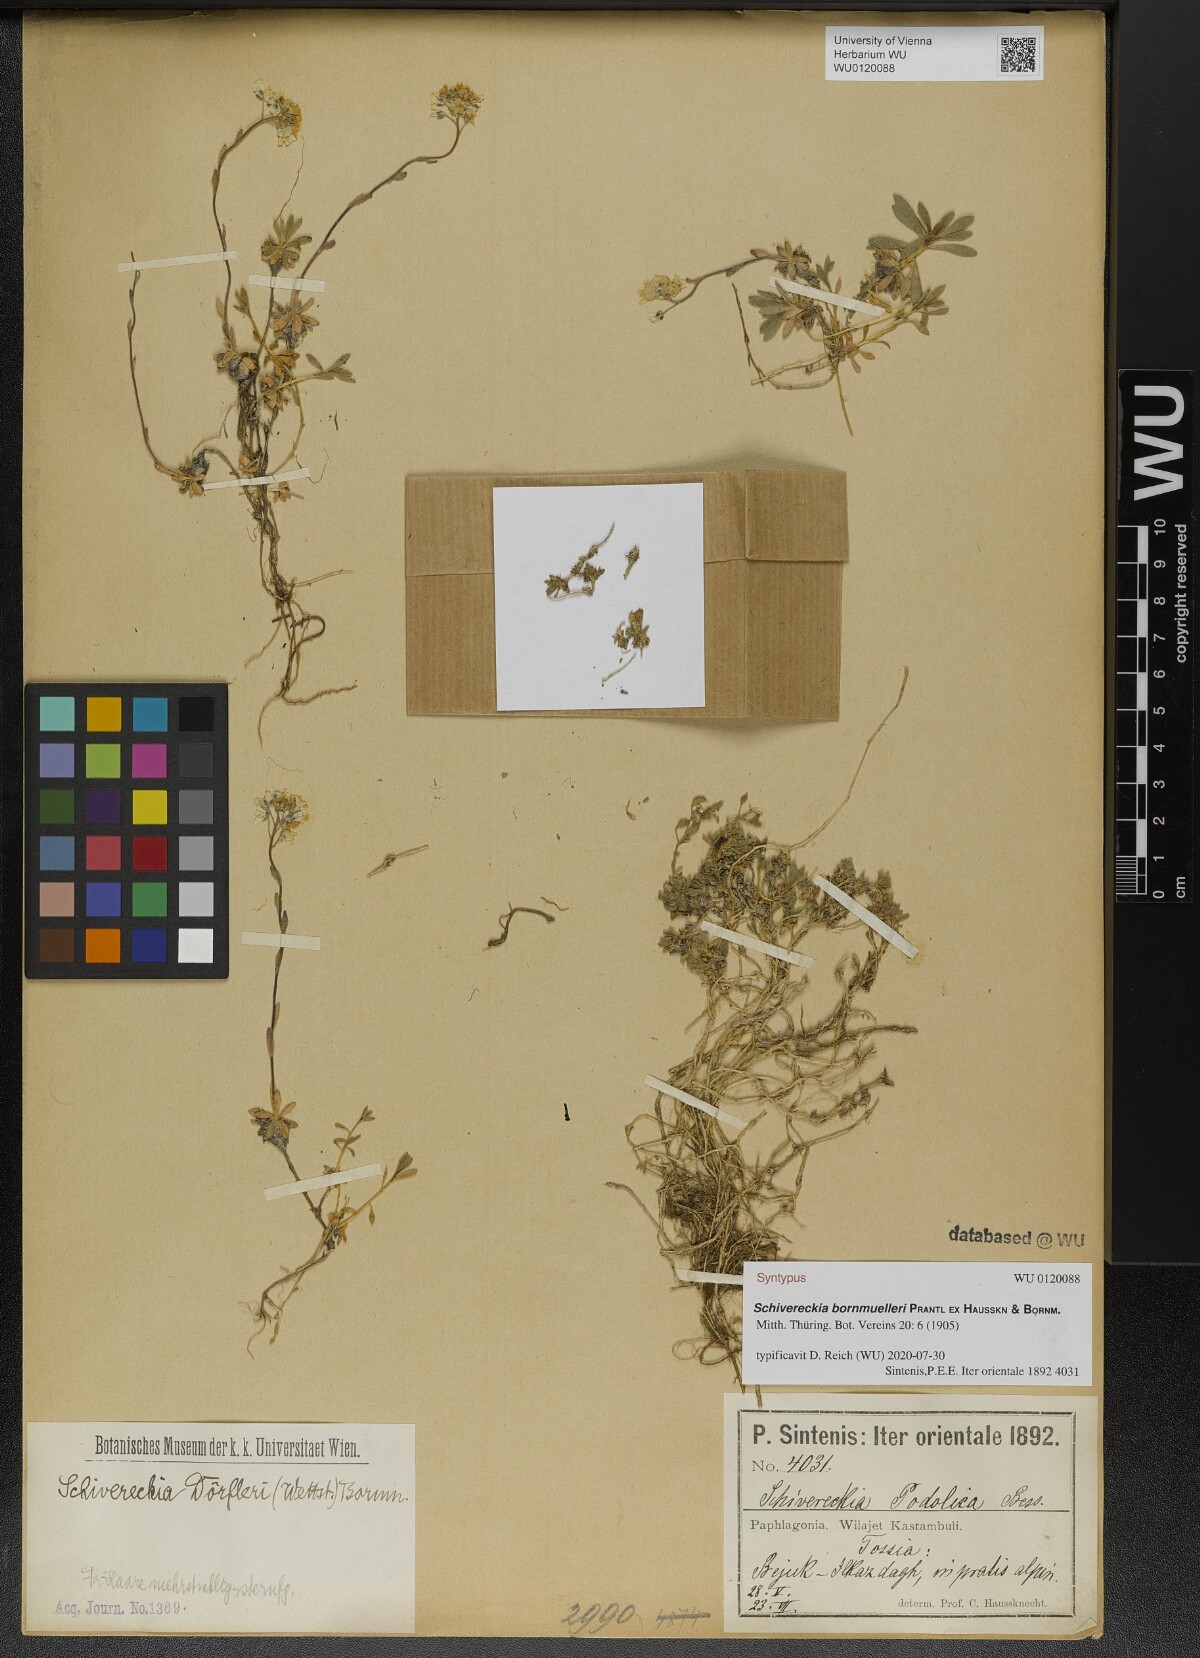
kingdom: Plantae
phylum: Tracheophyta
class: Magnoliopsida
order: Brassicales
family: Brassicaceae
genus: Draba
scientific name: Draba doerfleri
